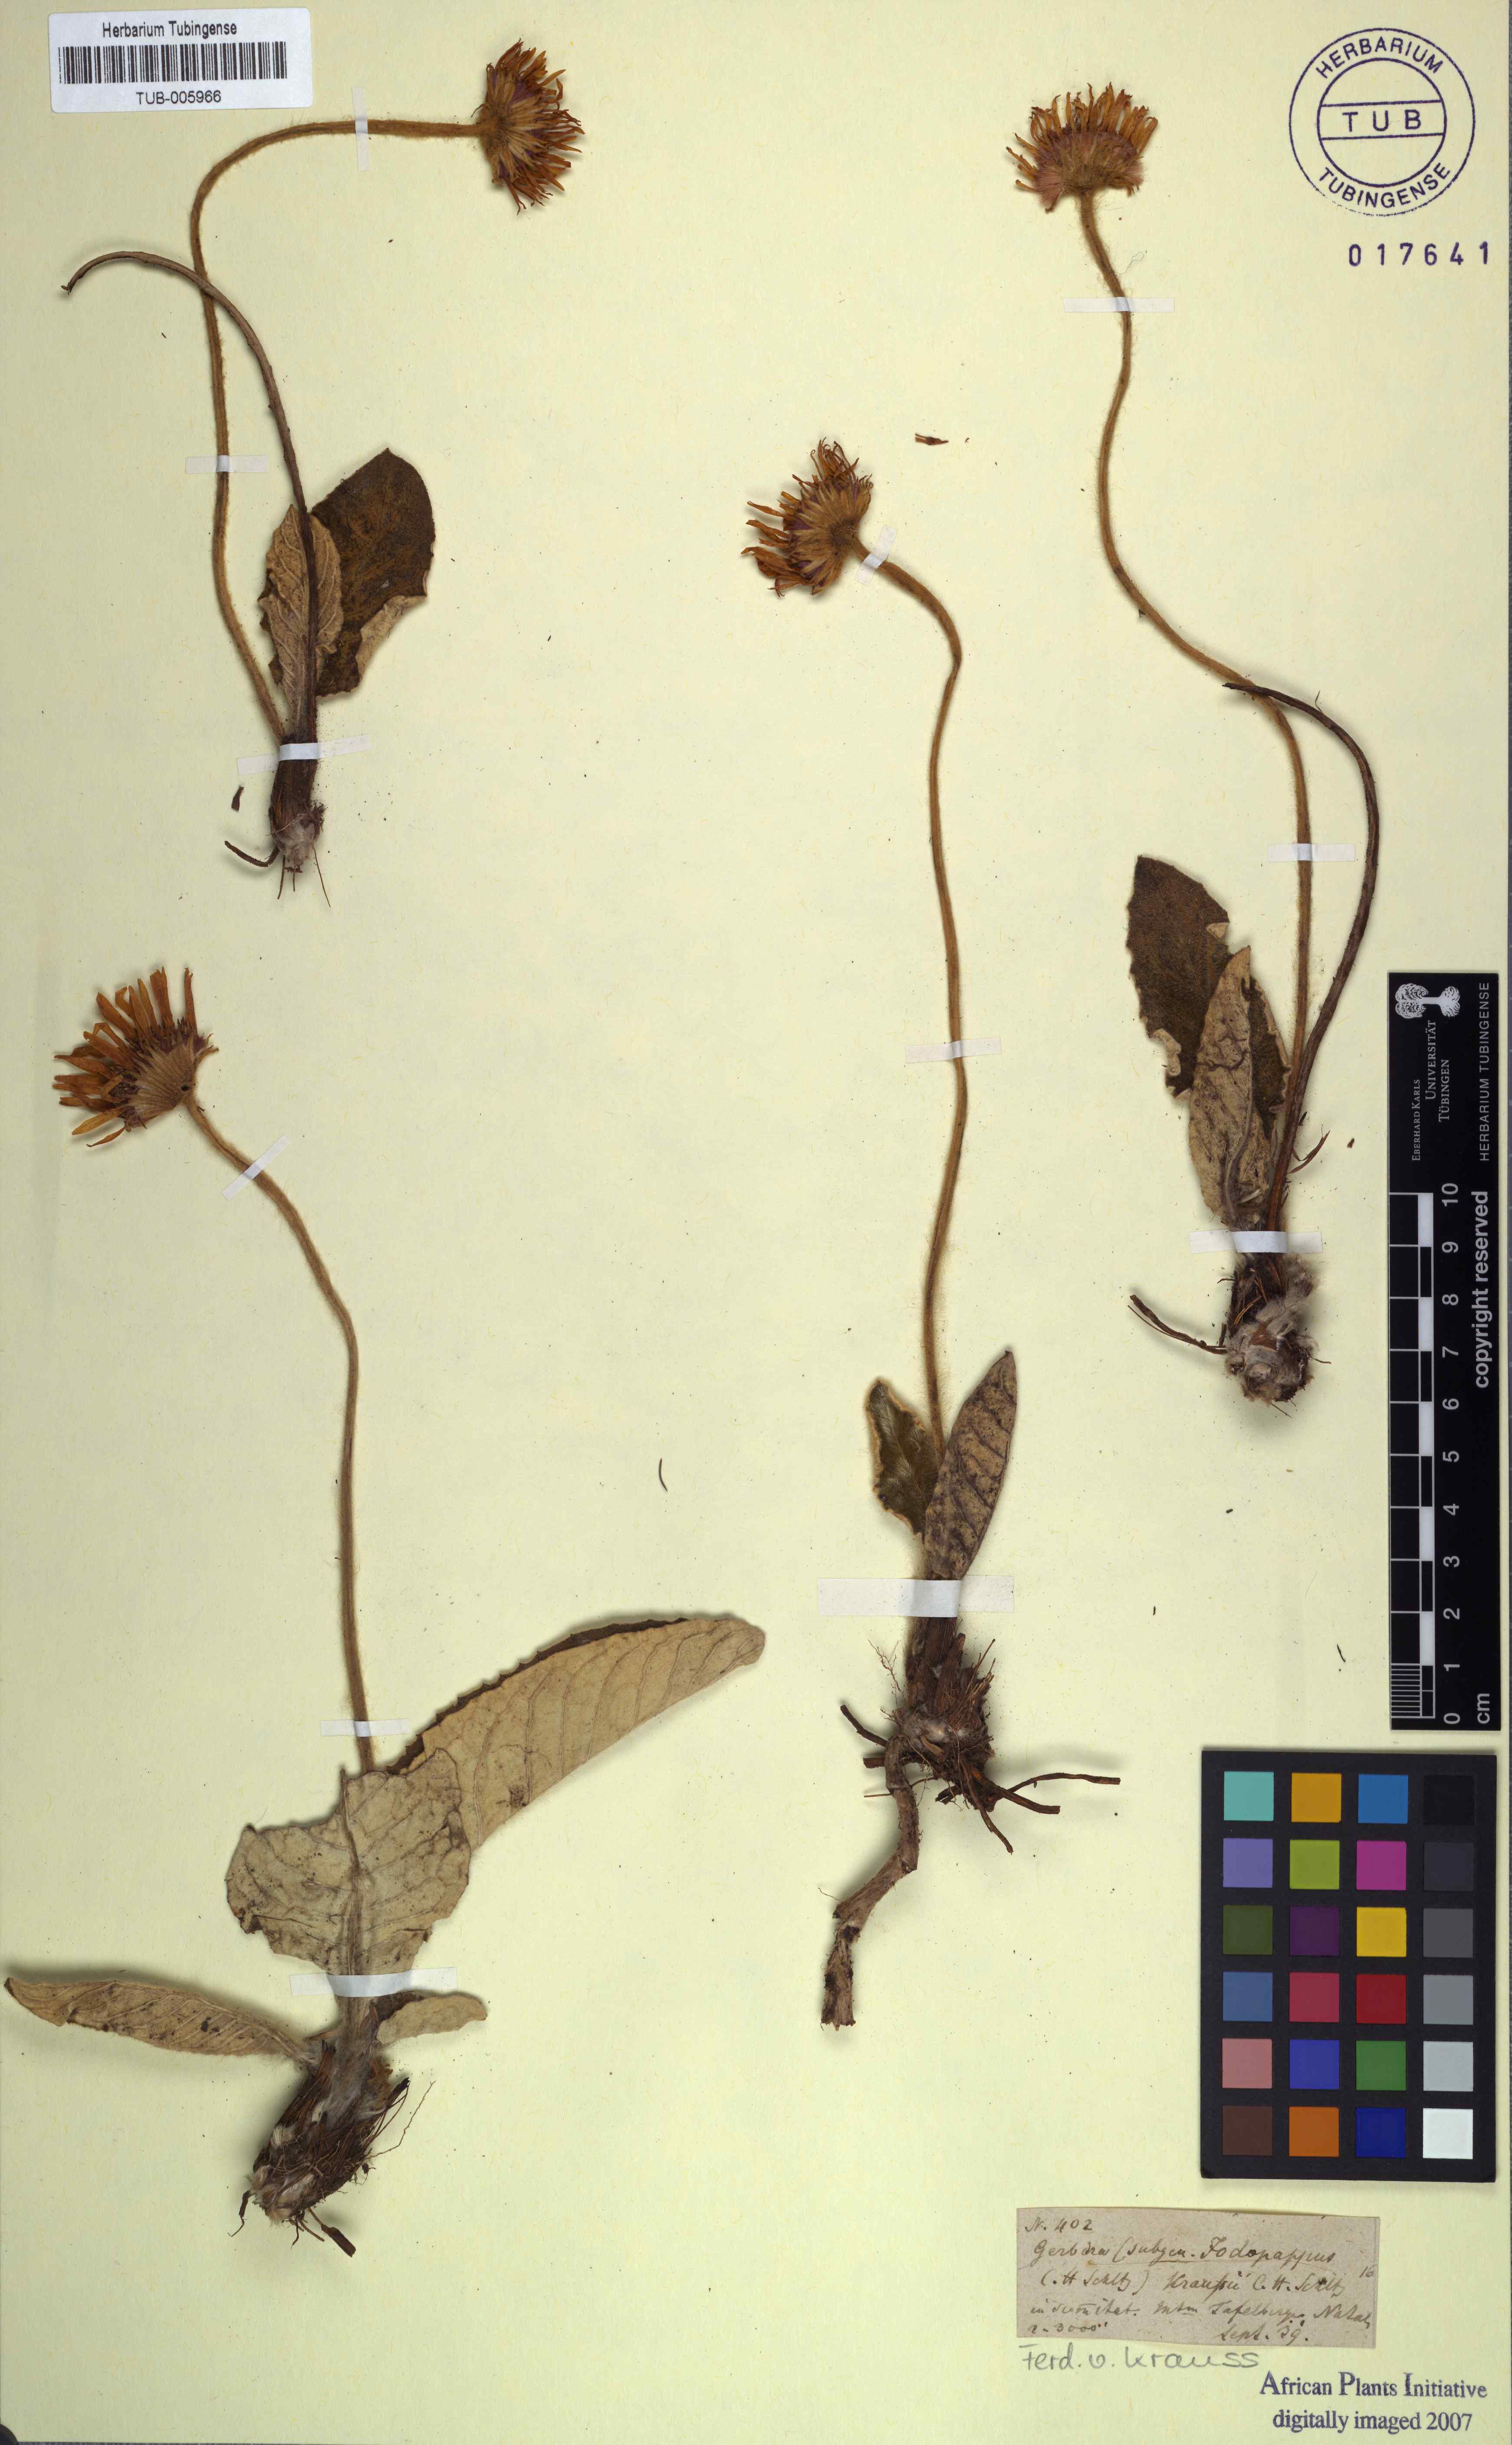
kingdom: Plantae
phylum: Tracheophyta
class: Magnoliopsida
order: Asterales
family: Asteraceae
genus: Gerbera
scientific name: Gerbera ambigua
